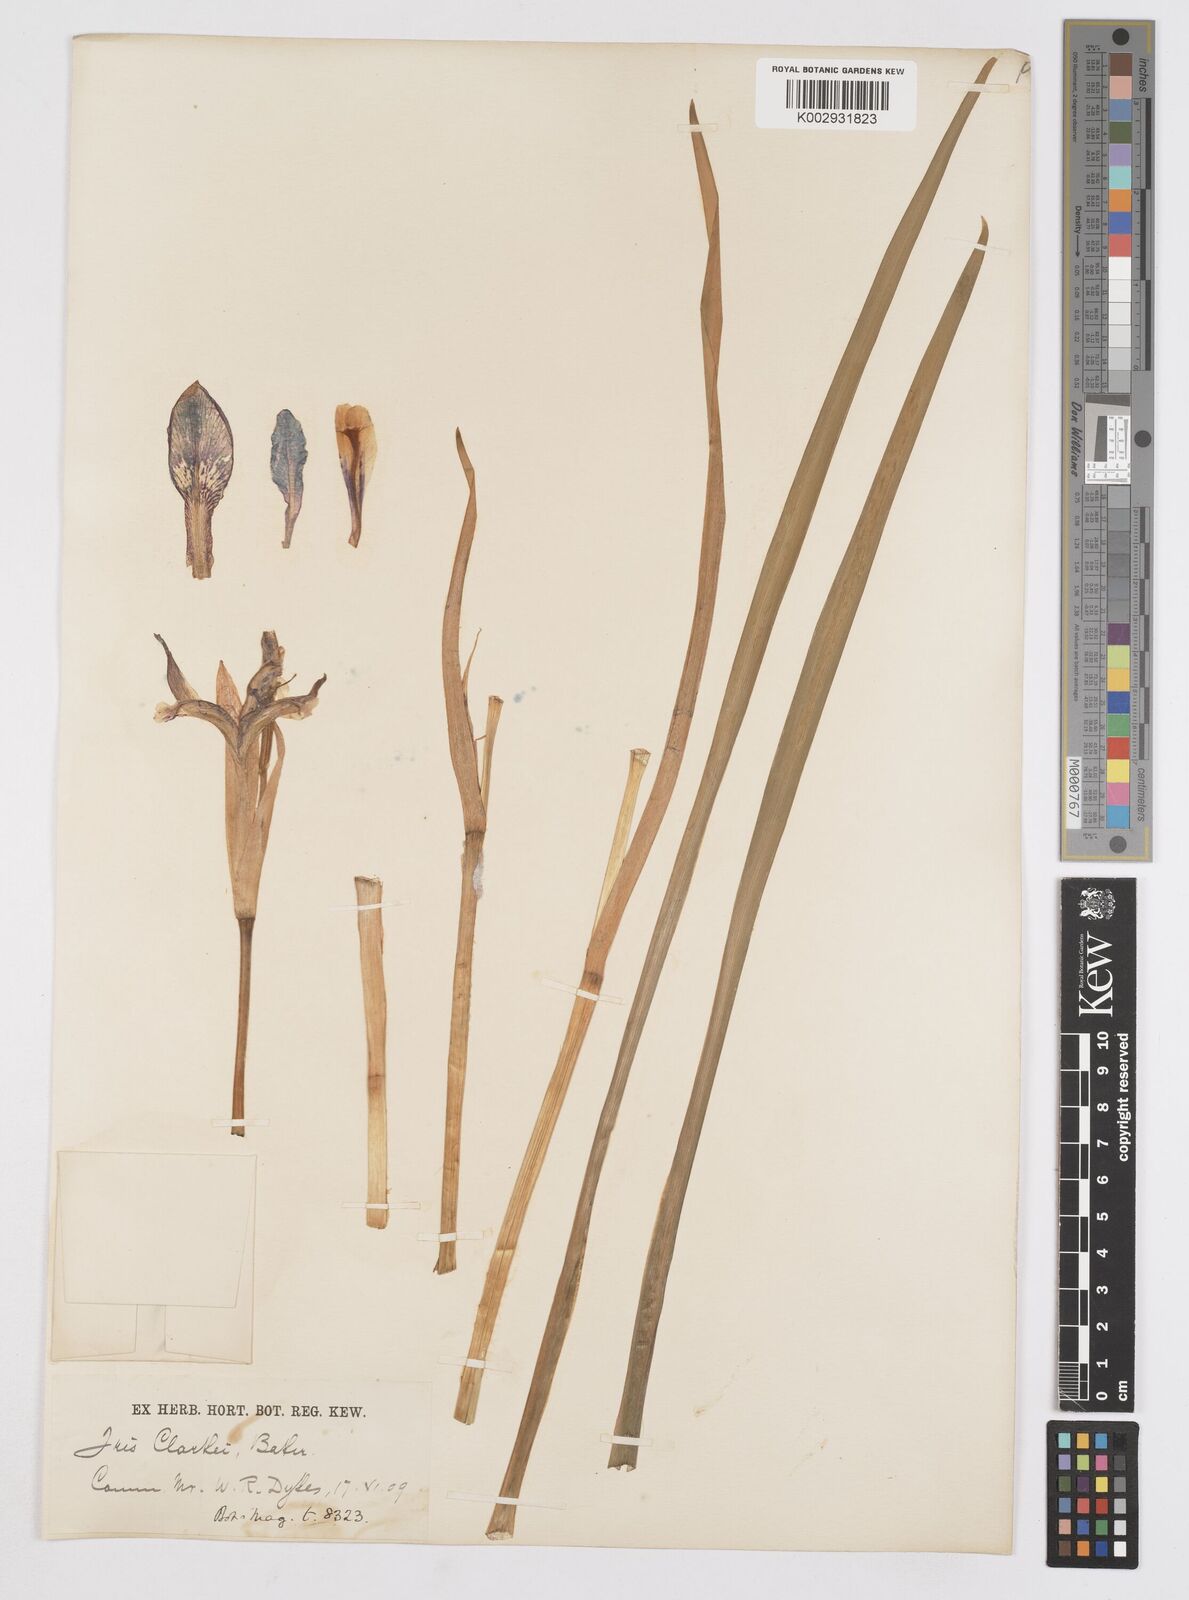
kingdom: Plantae
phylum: Tracheophyta
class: Liliopsida
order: Asparagales
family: Iridaceae
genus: Iris
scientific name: Iris clarkei
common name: Tibet iris
